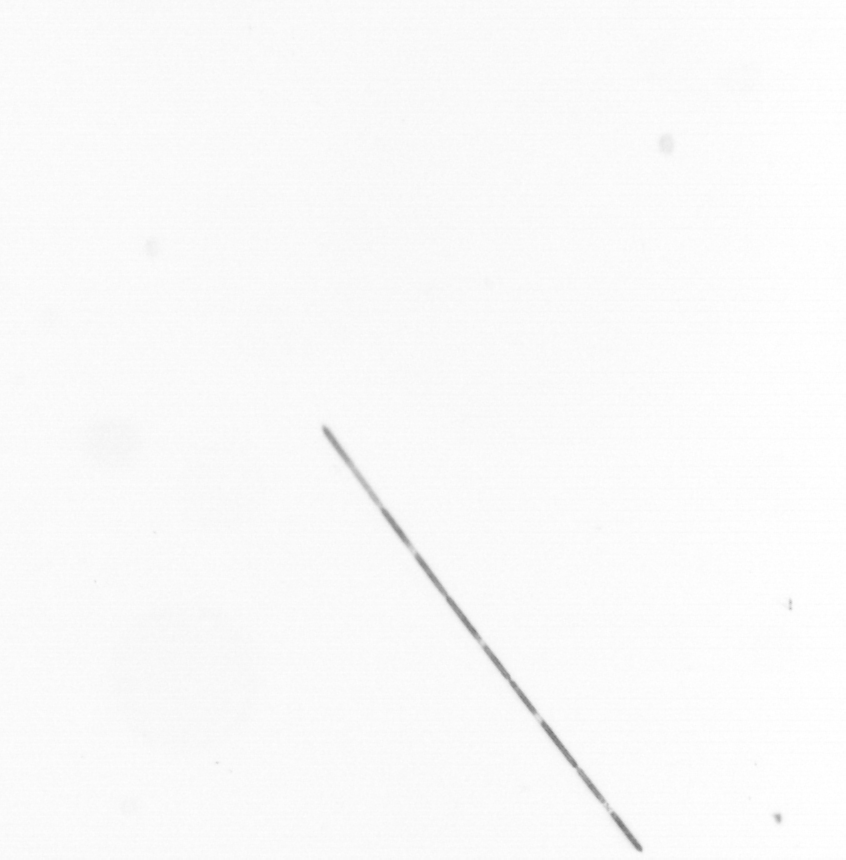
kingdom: Chromista
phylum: Ochrophyta
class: Bacillariophyceae
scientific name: Bacillariophyceae
